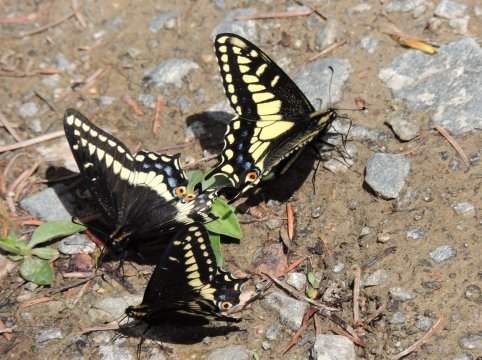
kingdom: Animalia
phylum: Arthropoda
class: Insecta
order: Lepidoptera
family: Papilionidae
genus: Papilio
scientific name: Papilio zelicaon
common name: Anise Swallowtail
